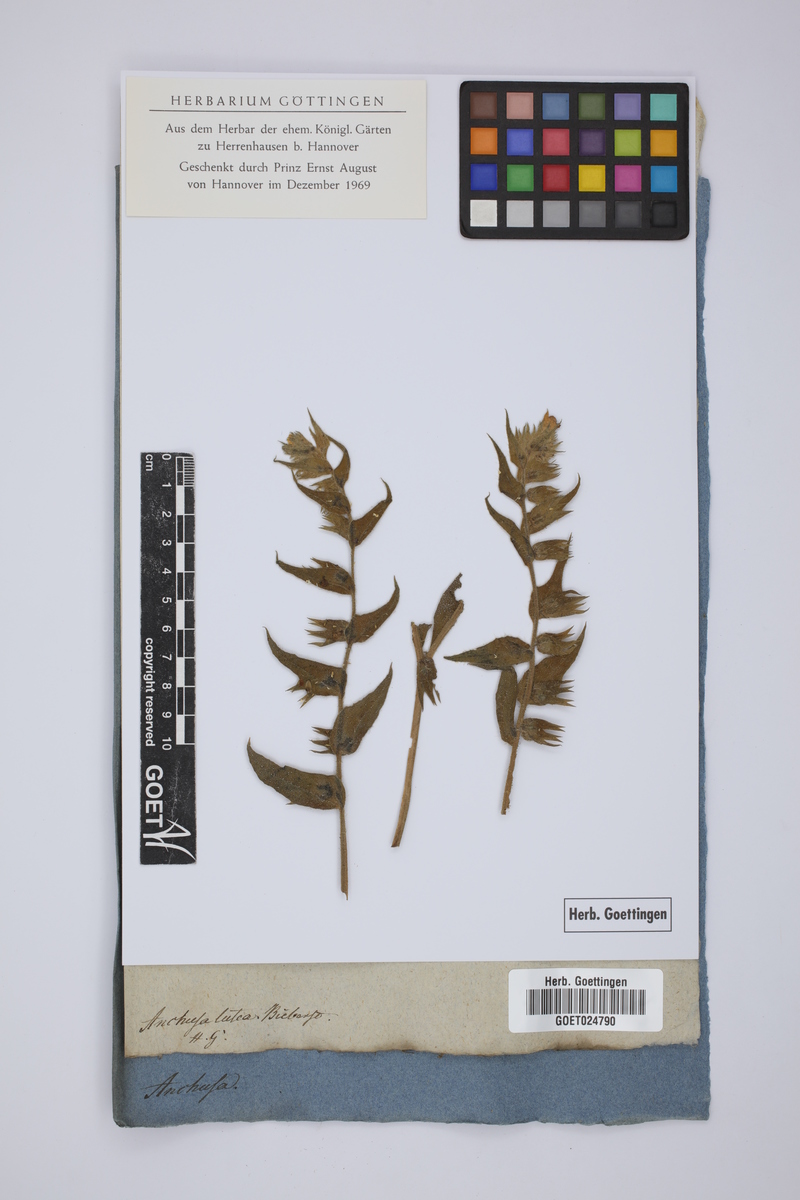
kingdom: Plantae
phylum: Tracheophyta
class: Magnoliopsida
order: Boraginales
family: Boraginaceae
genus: Nonea
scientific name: Nonea lutea
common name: Yellow nonea
